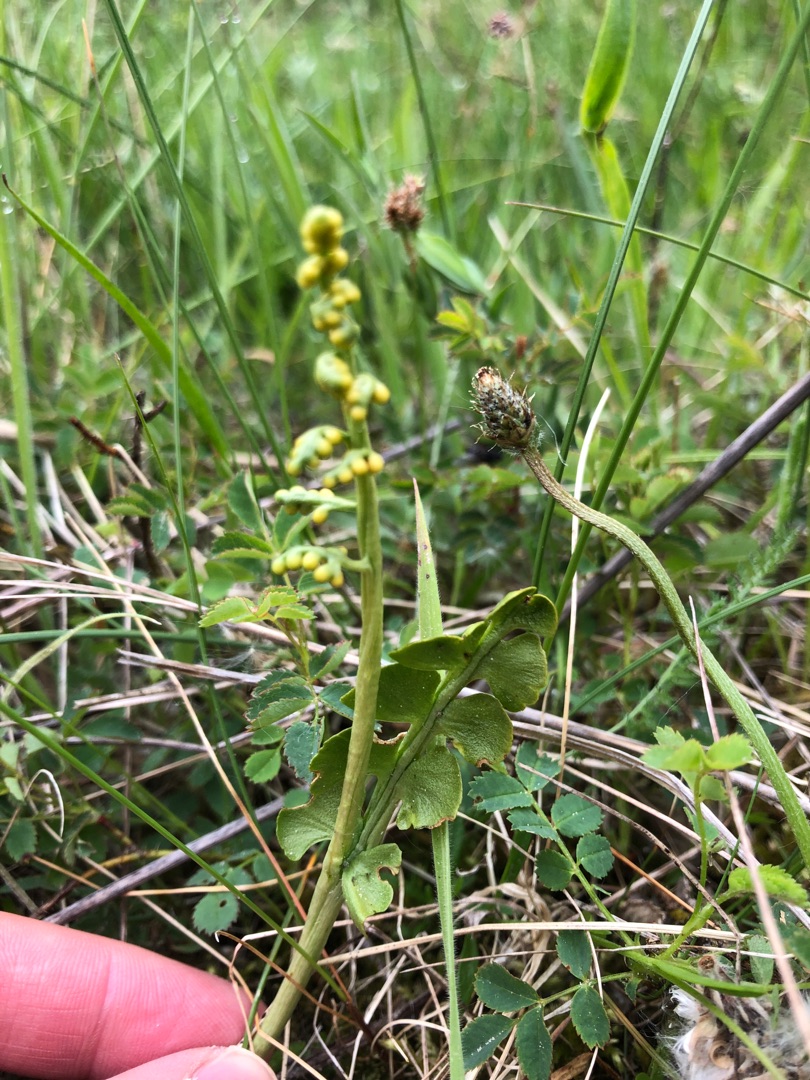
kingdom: Plantae
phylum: Tracheophyta
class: Polypodiopsida
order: Ophioglossales
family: Ophioglossaceae
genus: Botrychium
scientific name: Botrychium lunaria
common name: Almindelig månerude
